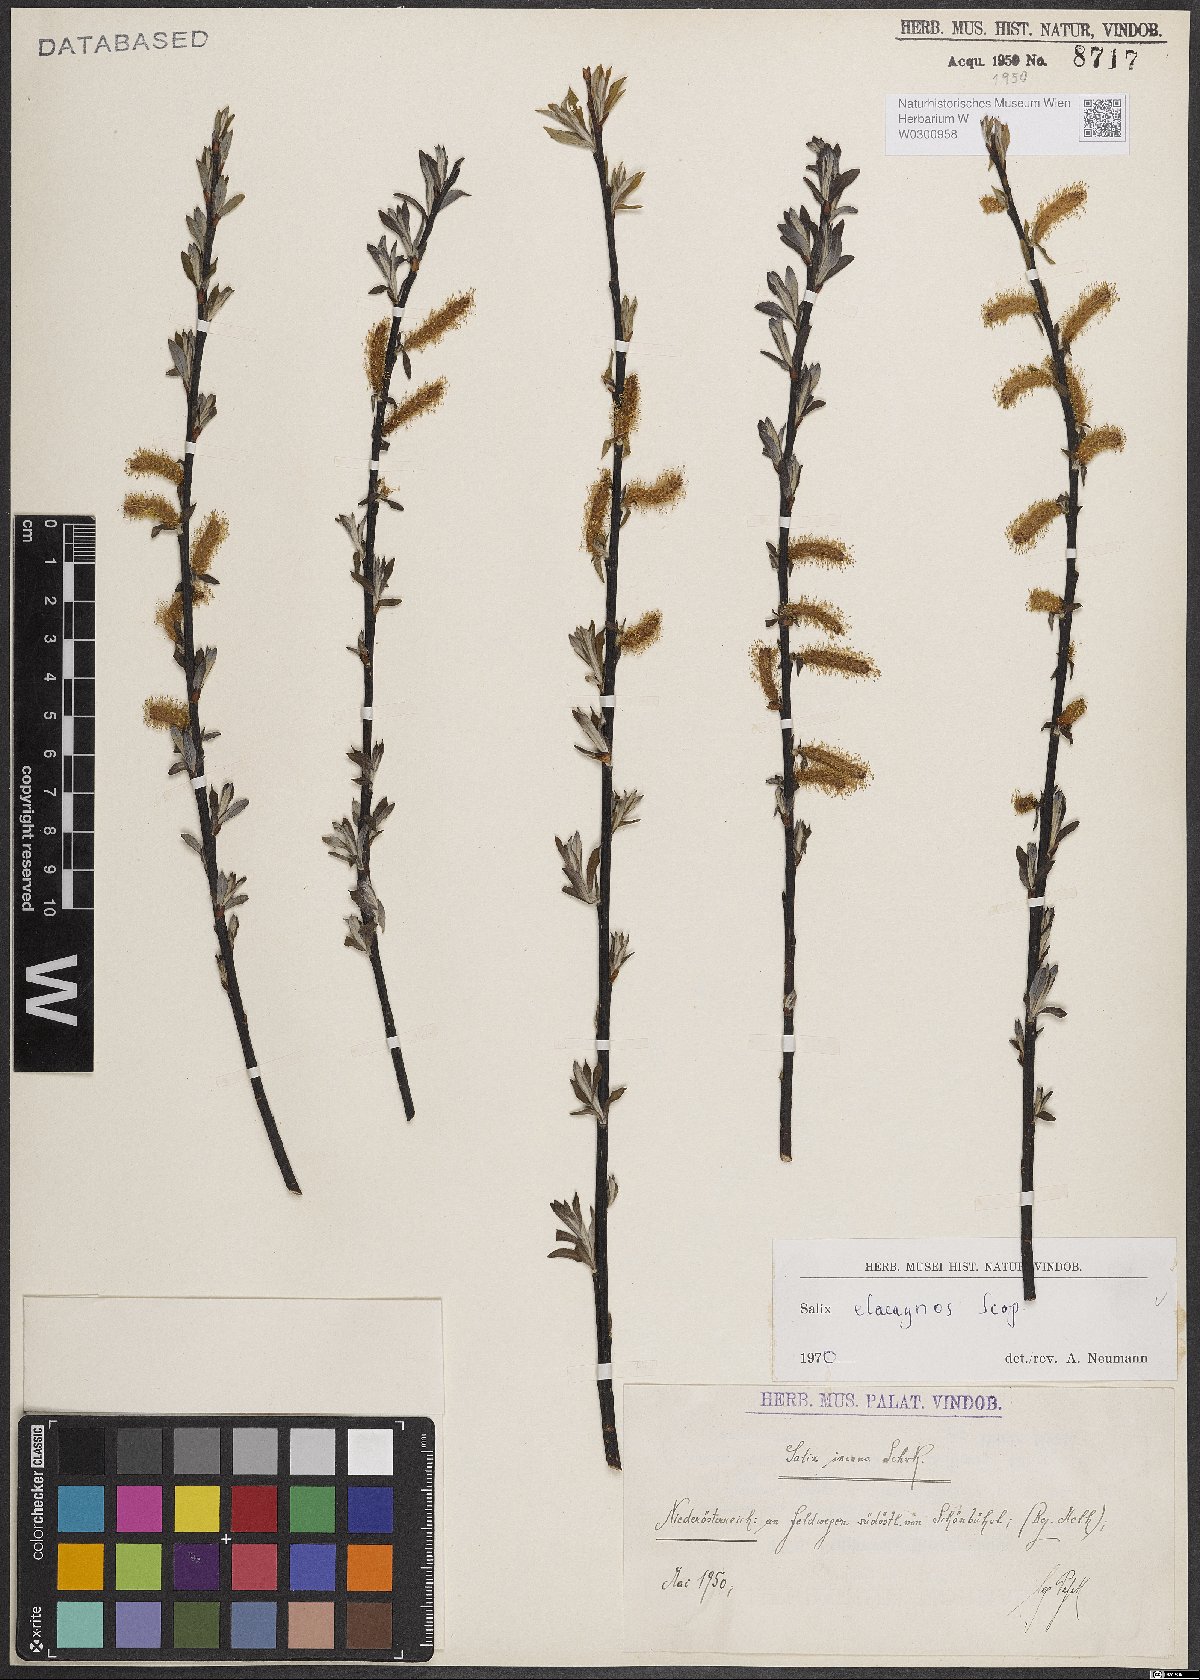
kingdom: Plantae
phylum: Tracheophyta
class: Magnoliopsida
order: Malpighiales
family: Salicaceae
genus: Salix
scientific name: Salix eleagnos
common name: Elaeagnus willow
